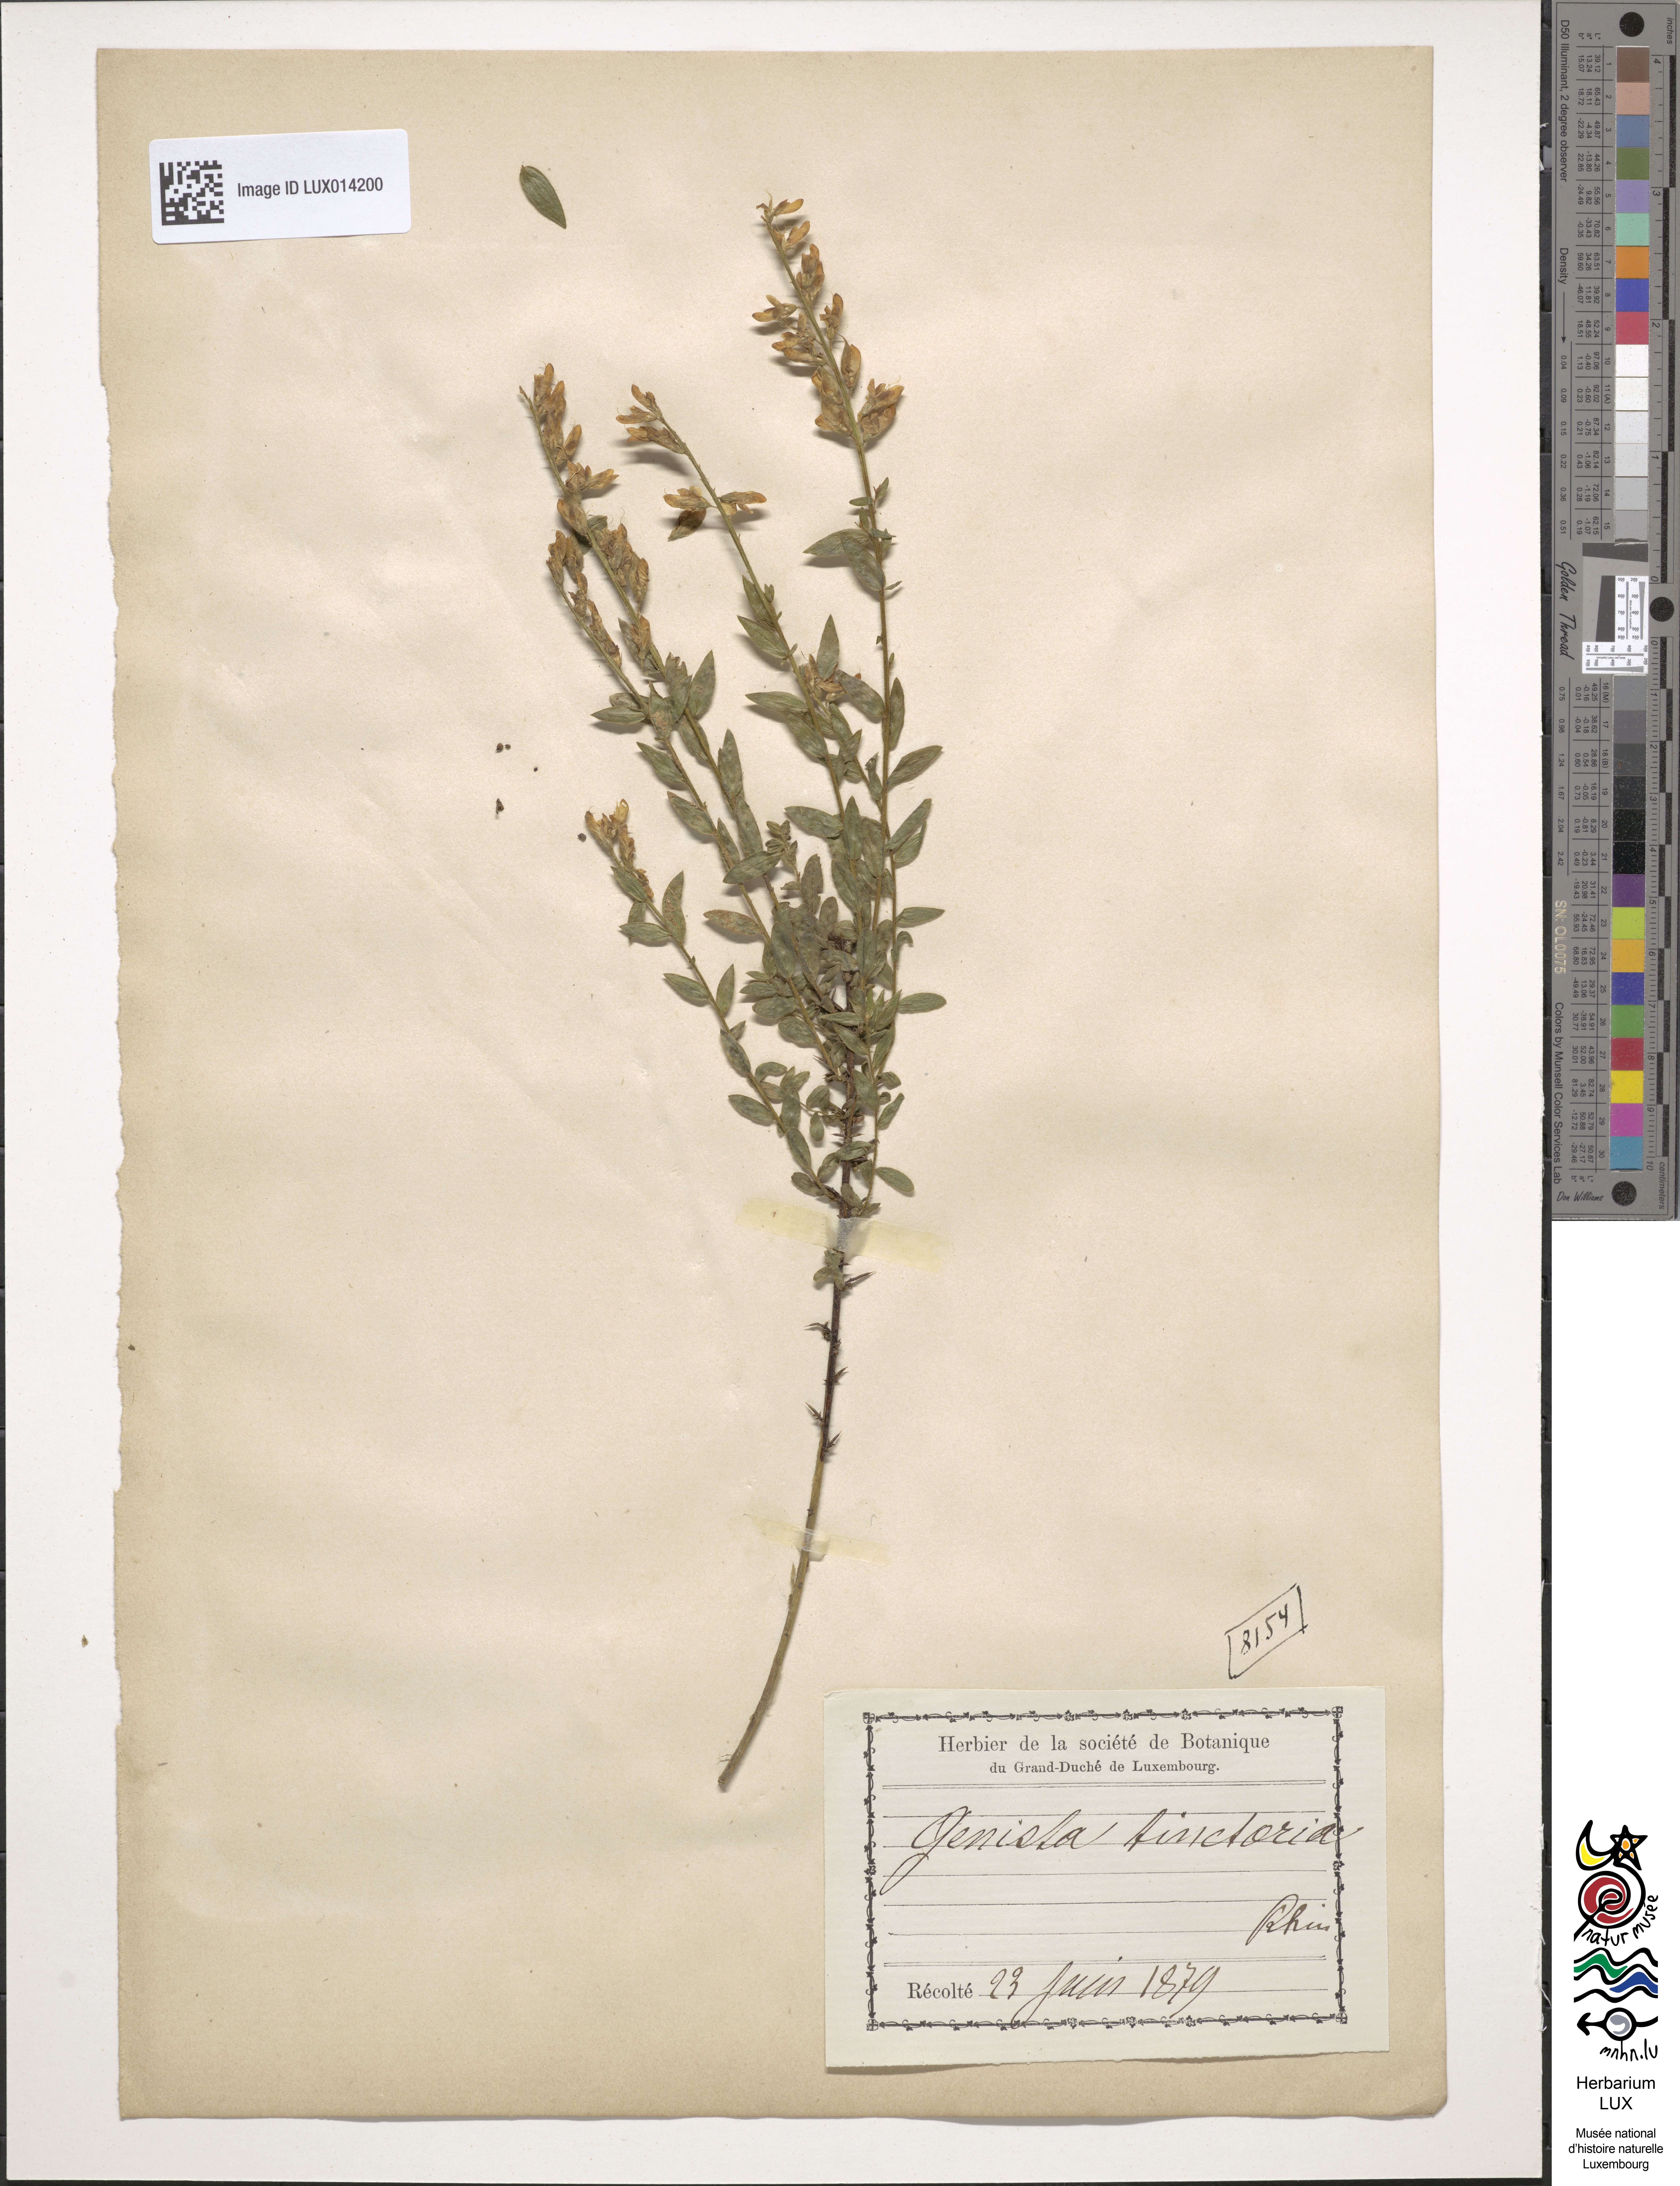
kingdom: Plantae
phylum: Tracheophyta
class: Magnoliopsida
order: Fabales
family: Fabaceae
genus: Genista
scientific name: Genista tinctoria
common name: Dyer's greenweed
